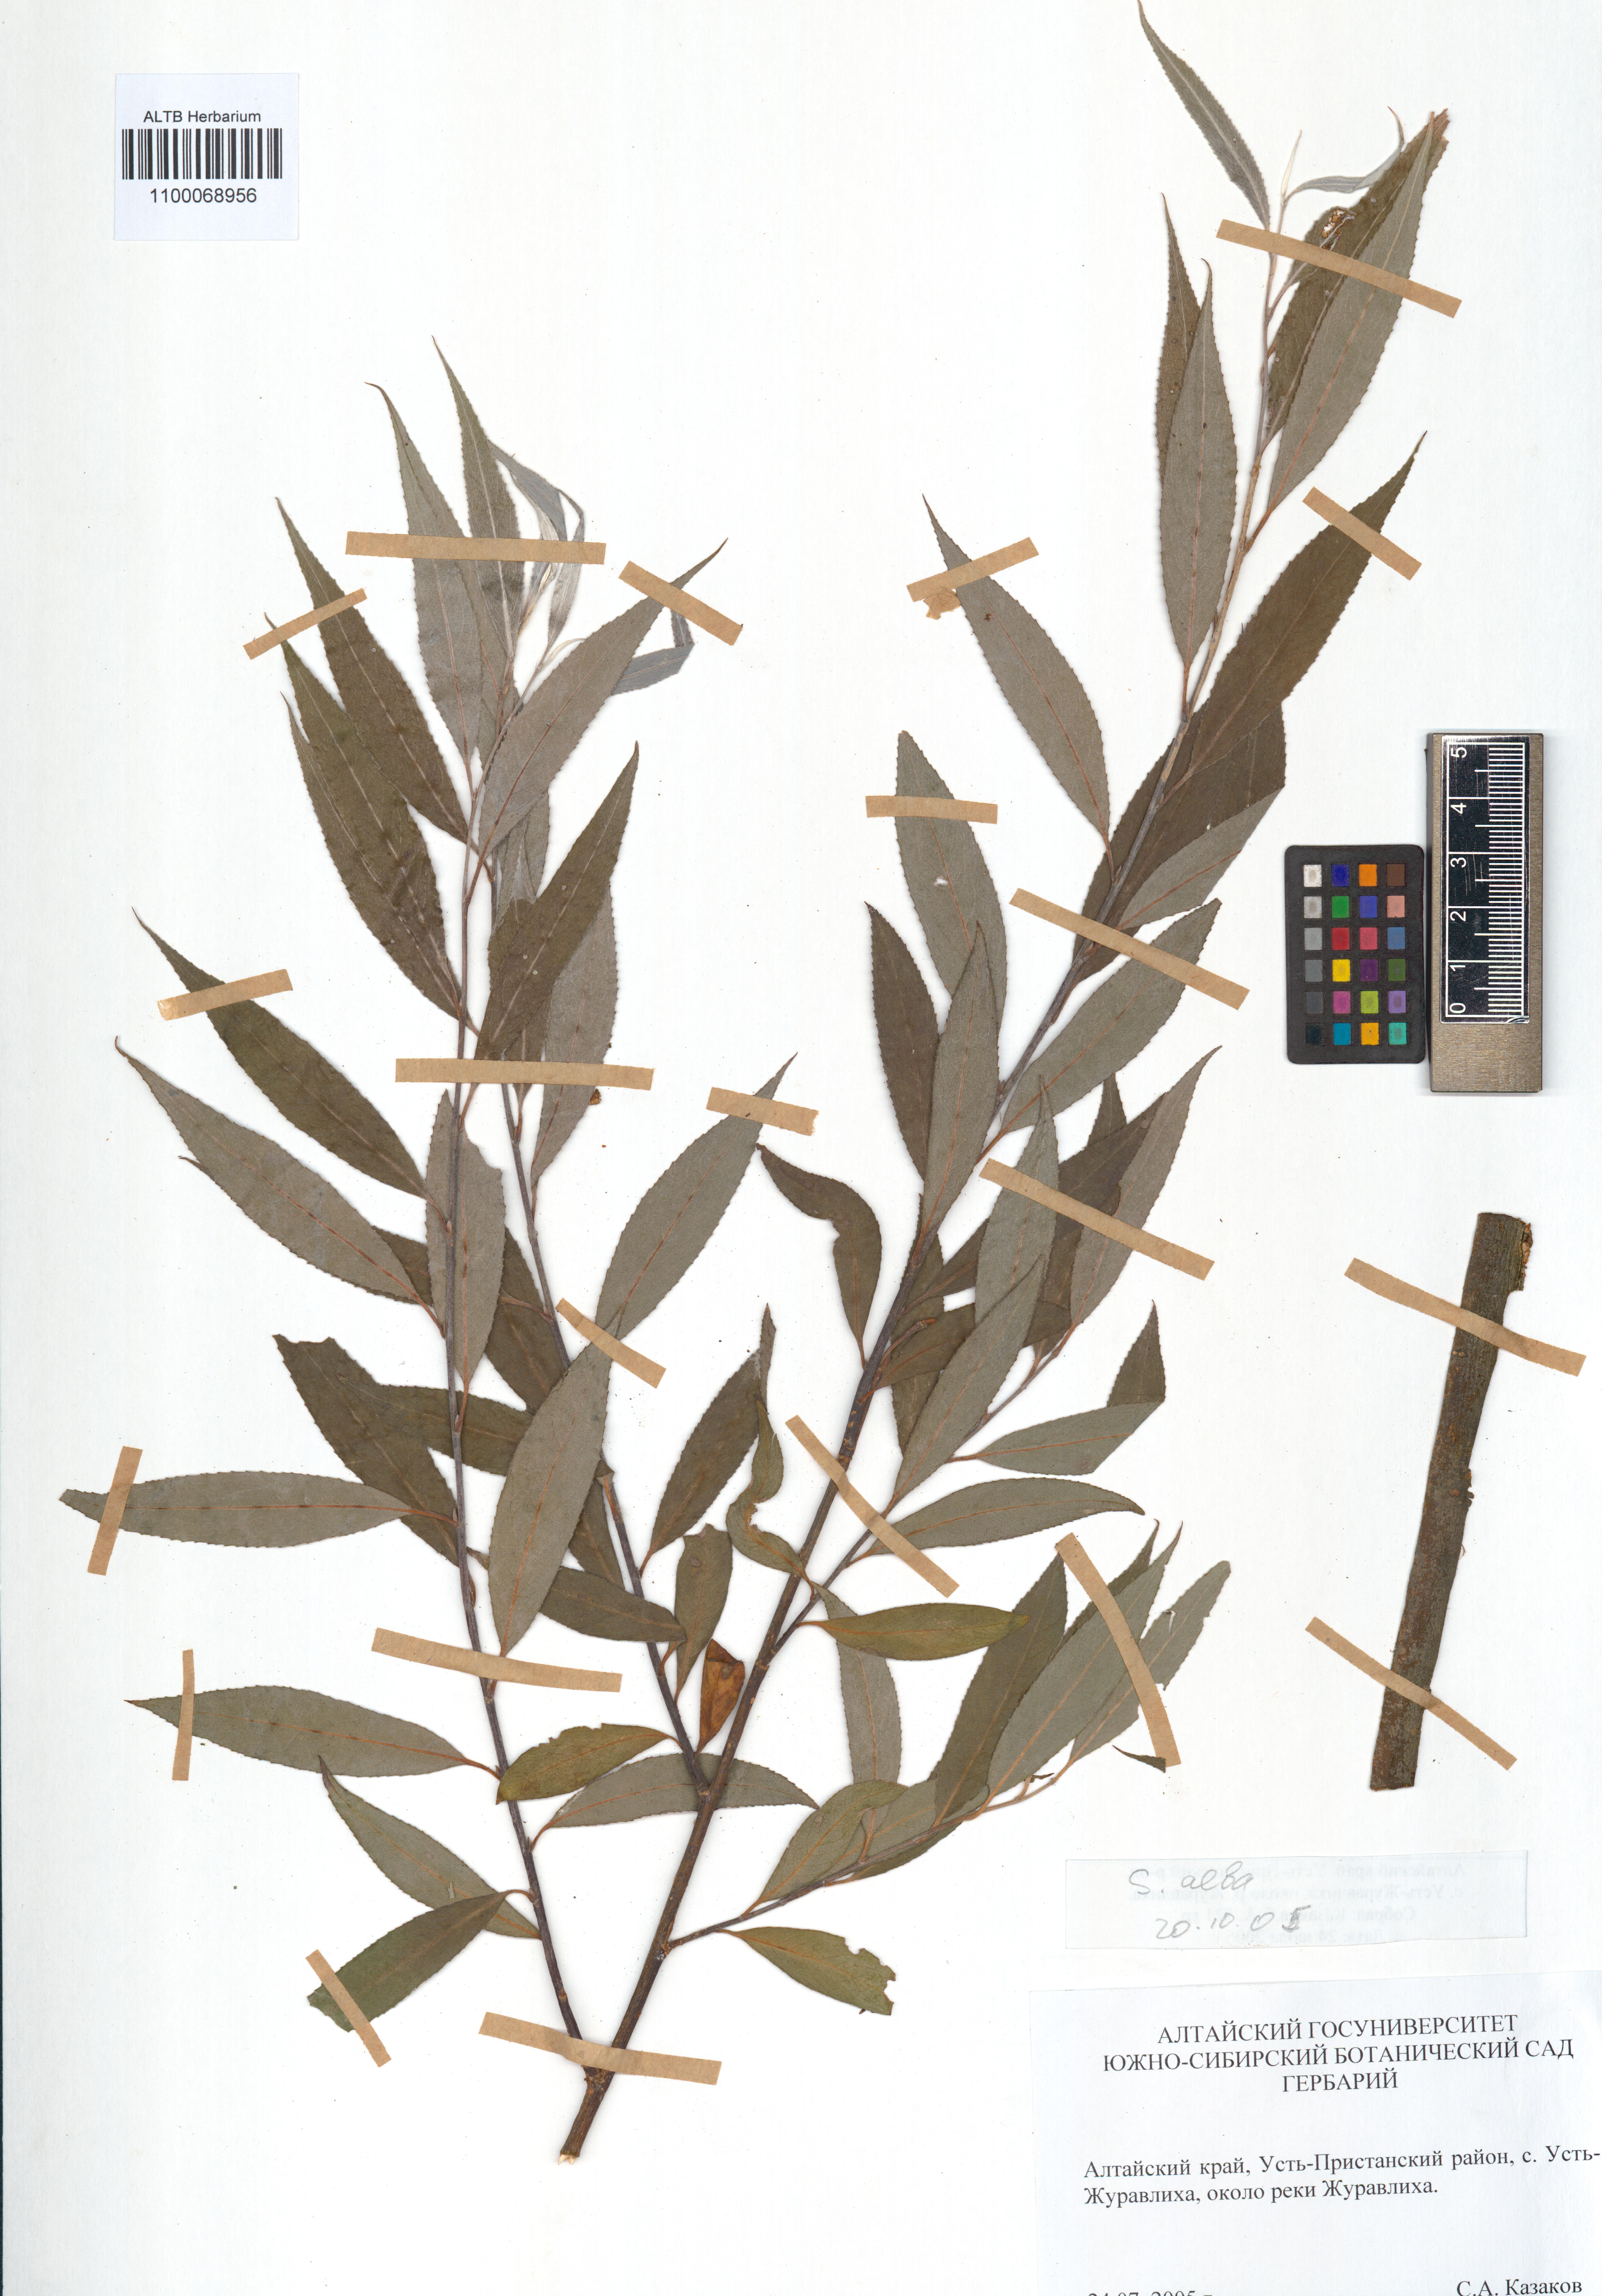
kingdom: Plantae
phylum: Tracheophyta
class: Magnoliopsida
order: Malpighiales
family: Salicaceae
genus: Salix
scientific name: Salix alba
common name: White willow
